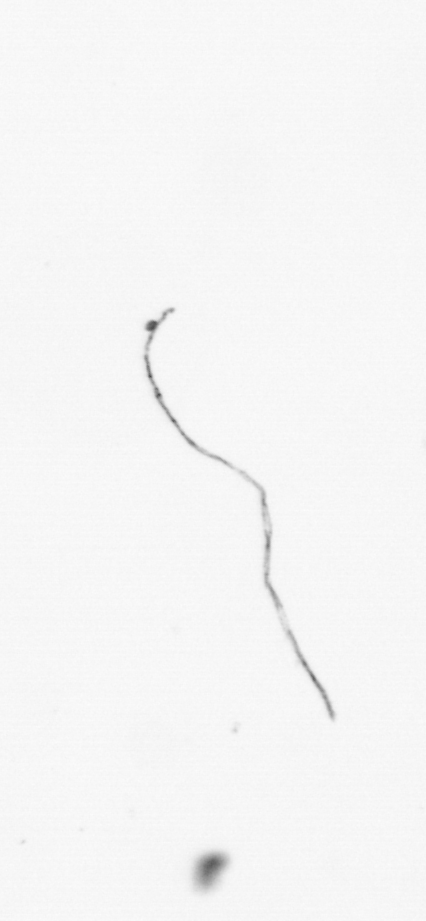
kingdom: Chromista
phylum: Ochrophyta
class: Bacillariophyceae
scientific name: Bacillariophyceae
